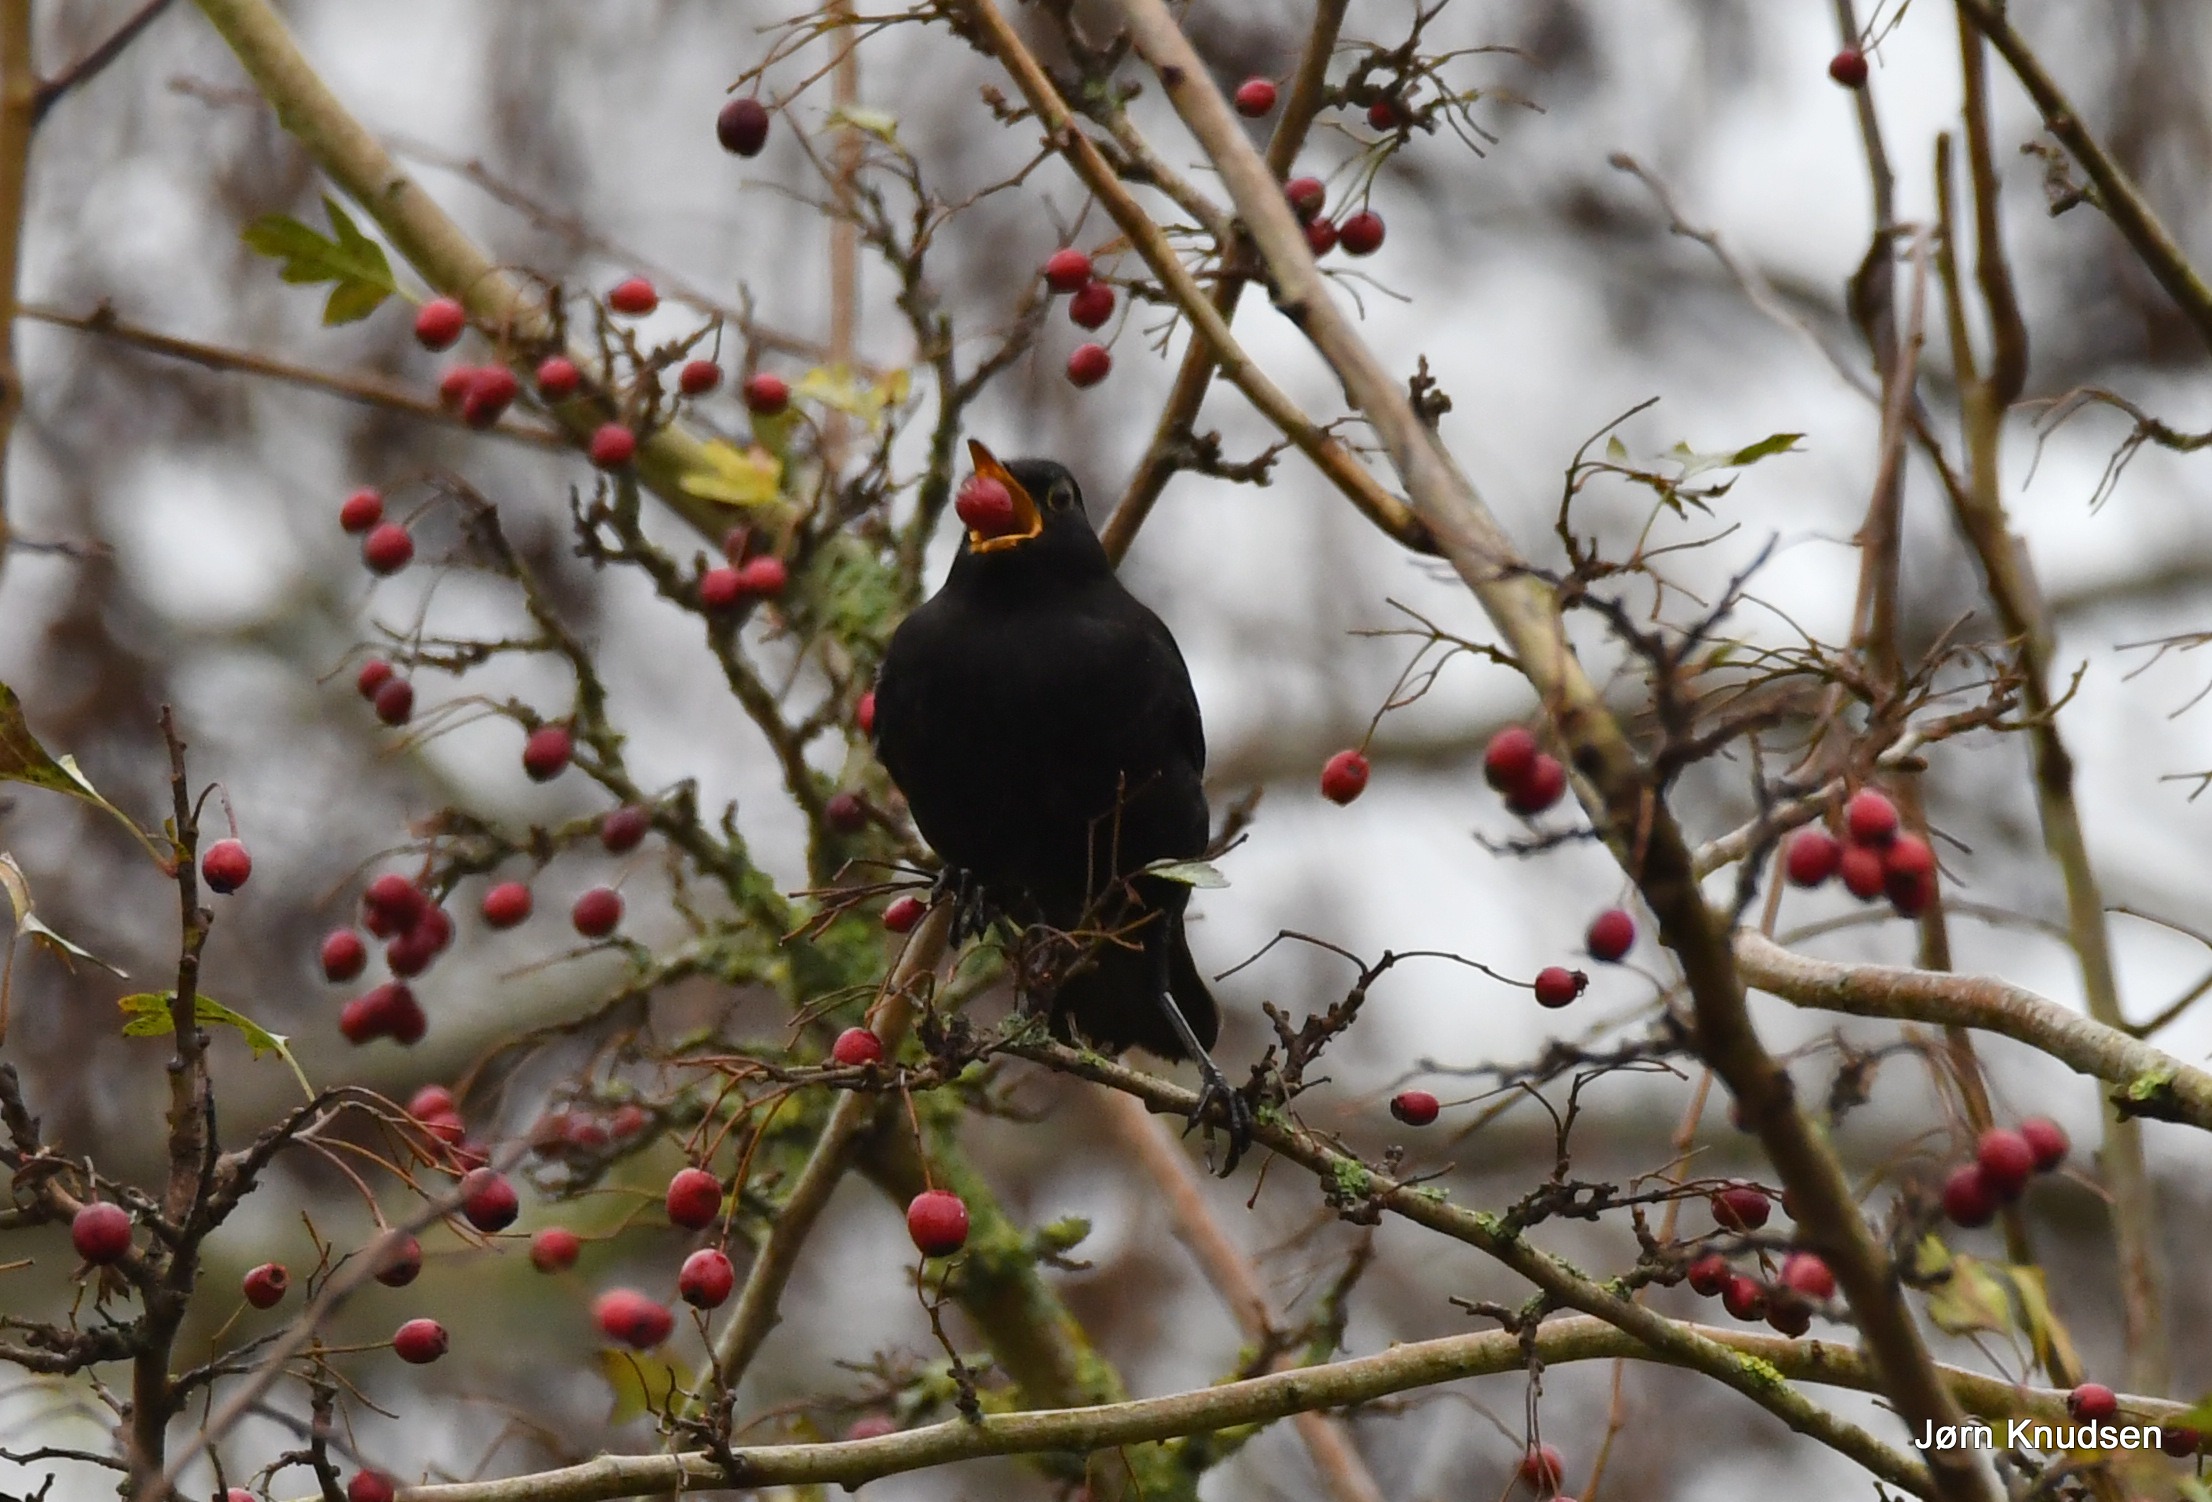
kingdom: Animalia
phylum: Chordata
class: Aves
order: Passeriformes
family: Turdidae
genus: Turdus
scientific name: Turdus merula
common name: Solsort
